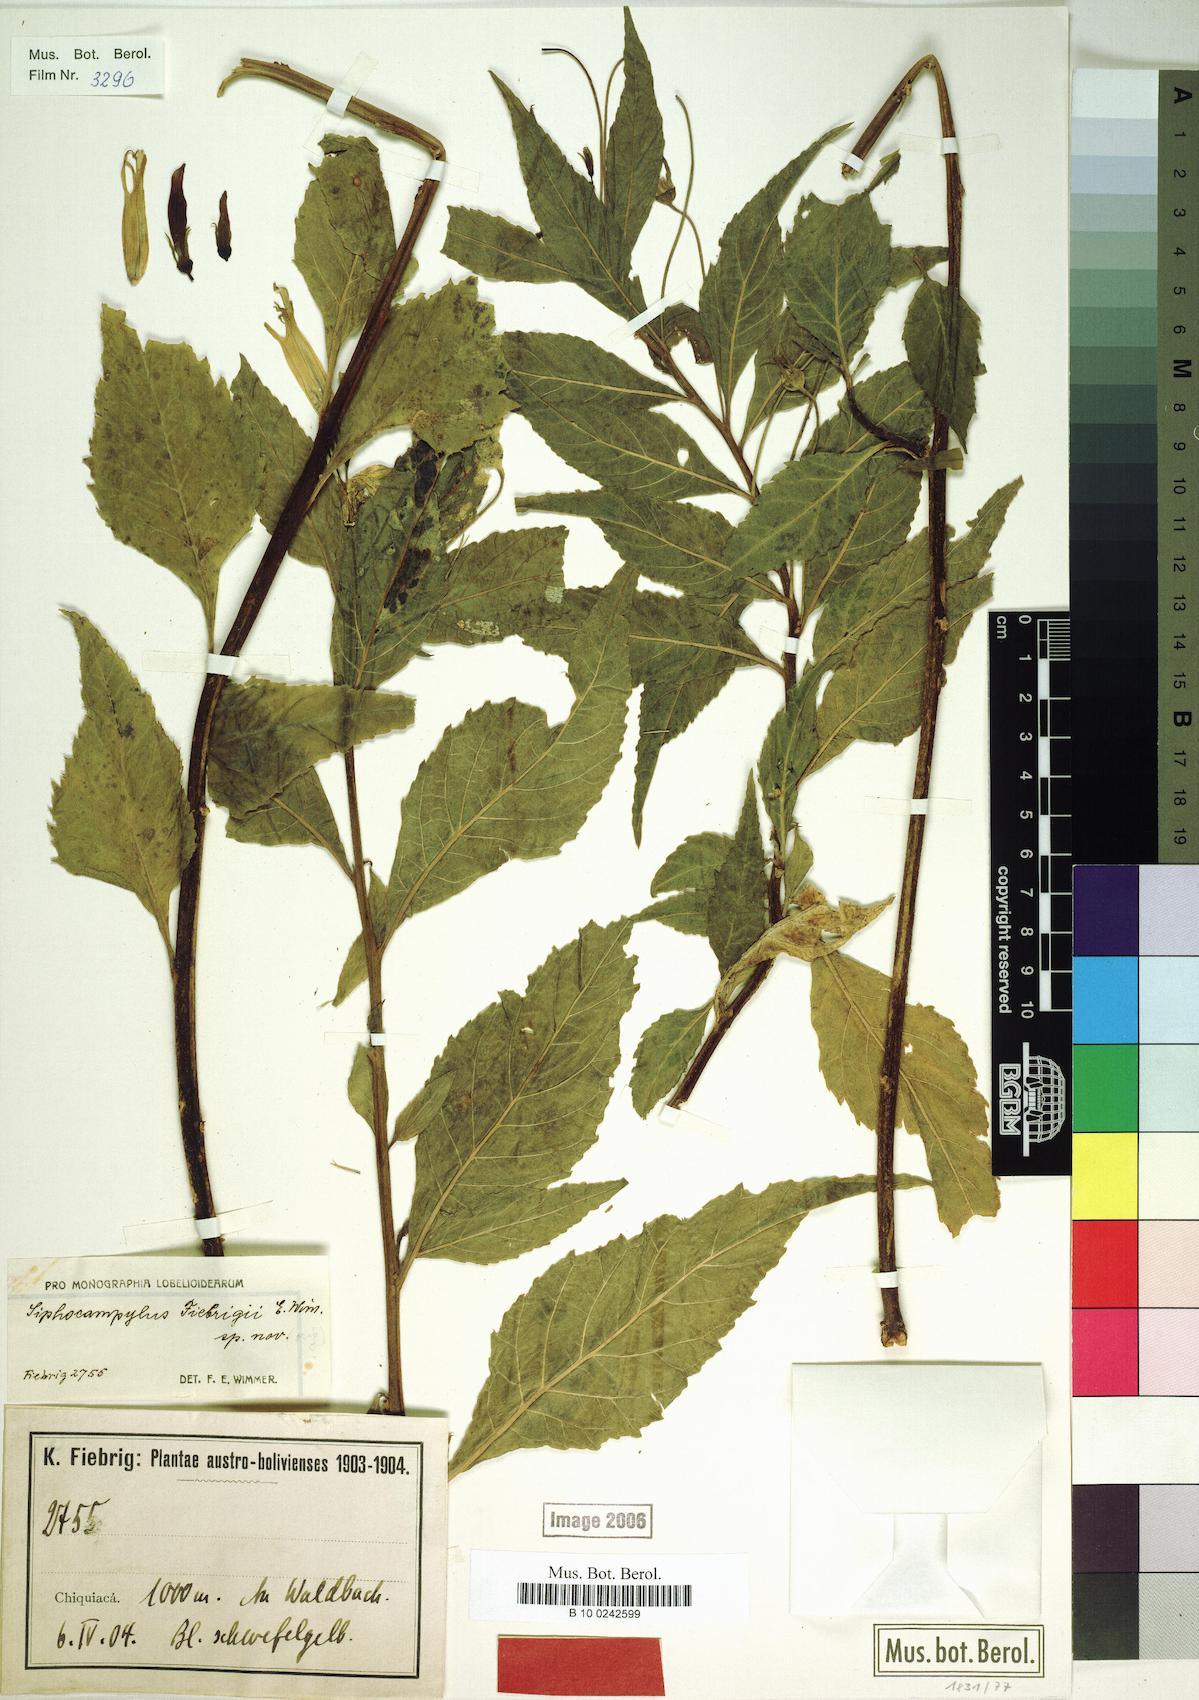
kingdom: Plantae
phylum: Tracheophyta
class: Magnoliopsida
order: Asterales
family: Campanulaceae
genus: Siphocampylus
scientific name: Siphocampylus fiebrigii
